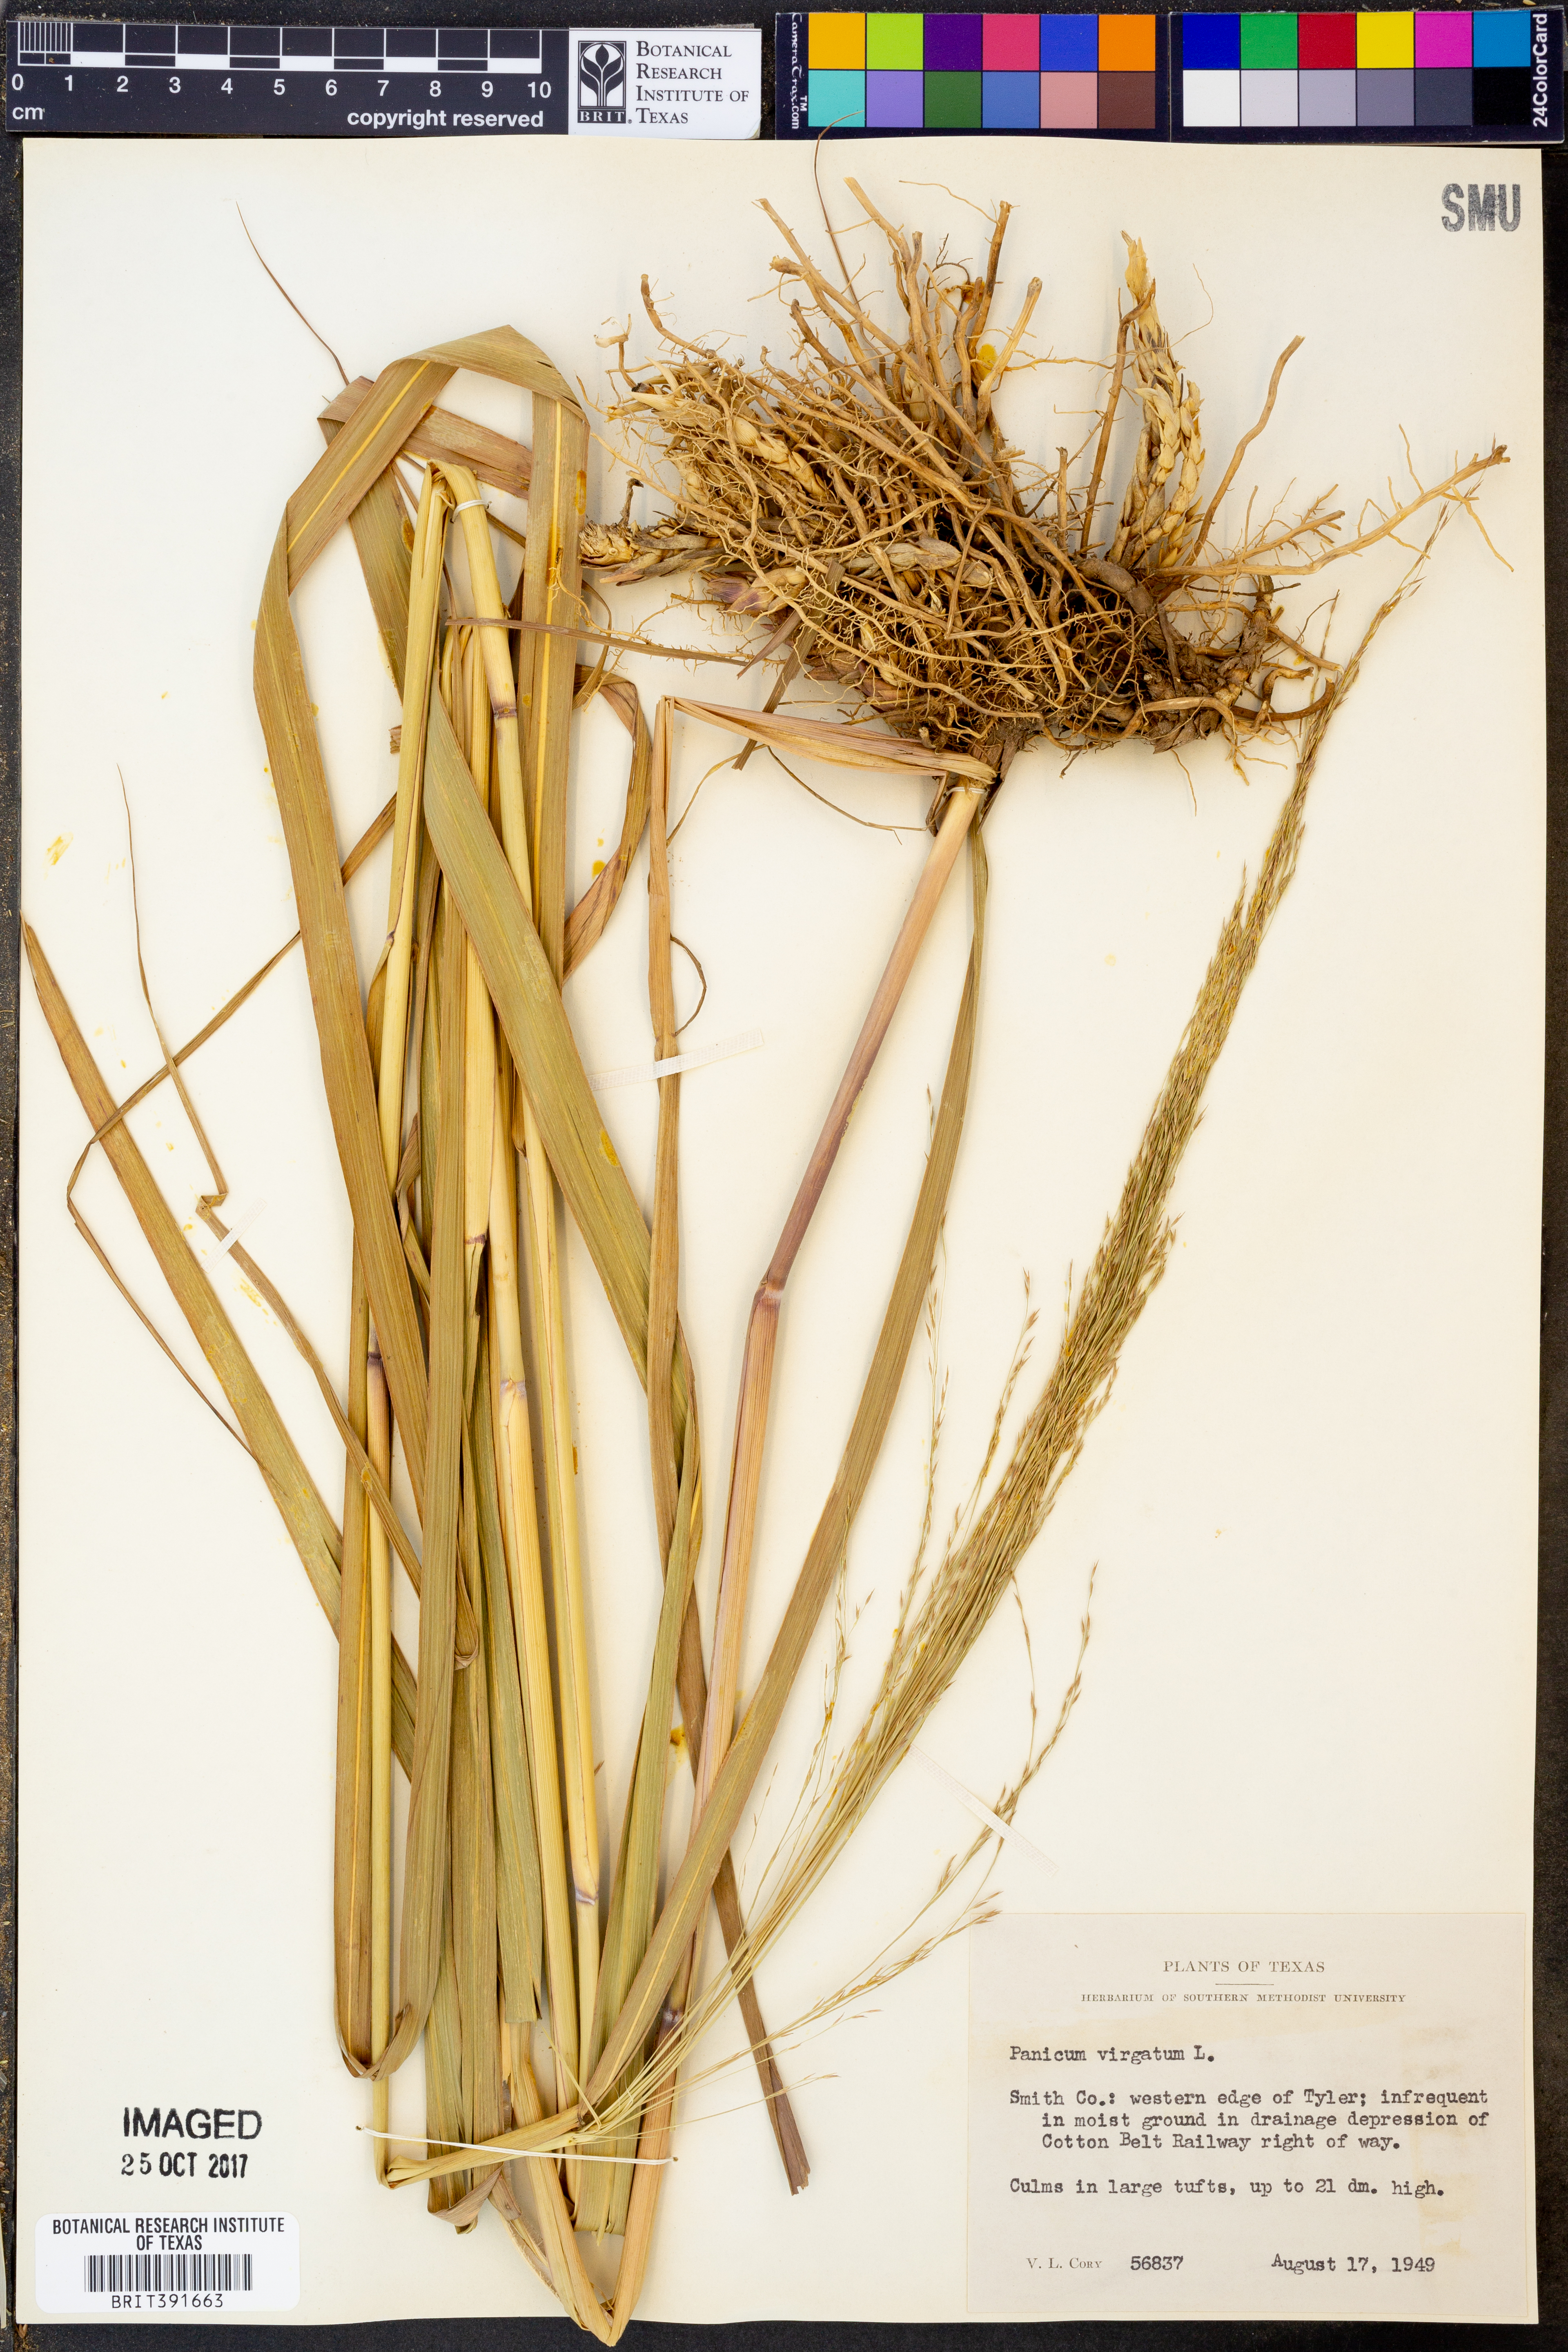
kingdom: Plantae
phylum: Tracheophyta
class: Liliopsida
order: Poales
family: Poaceae
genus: Panicum
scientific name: Panicum virgatum
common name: Switchgrass
